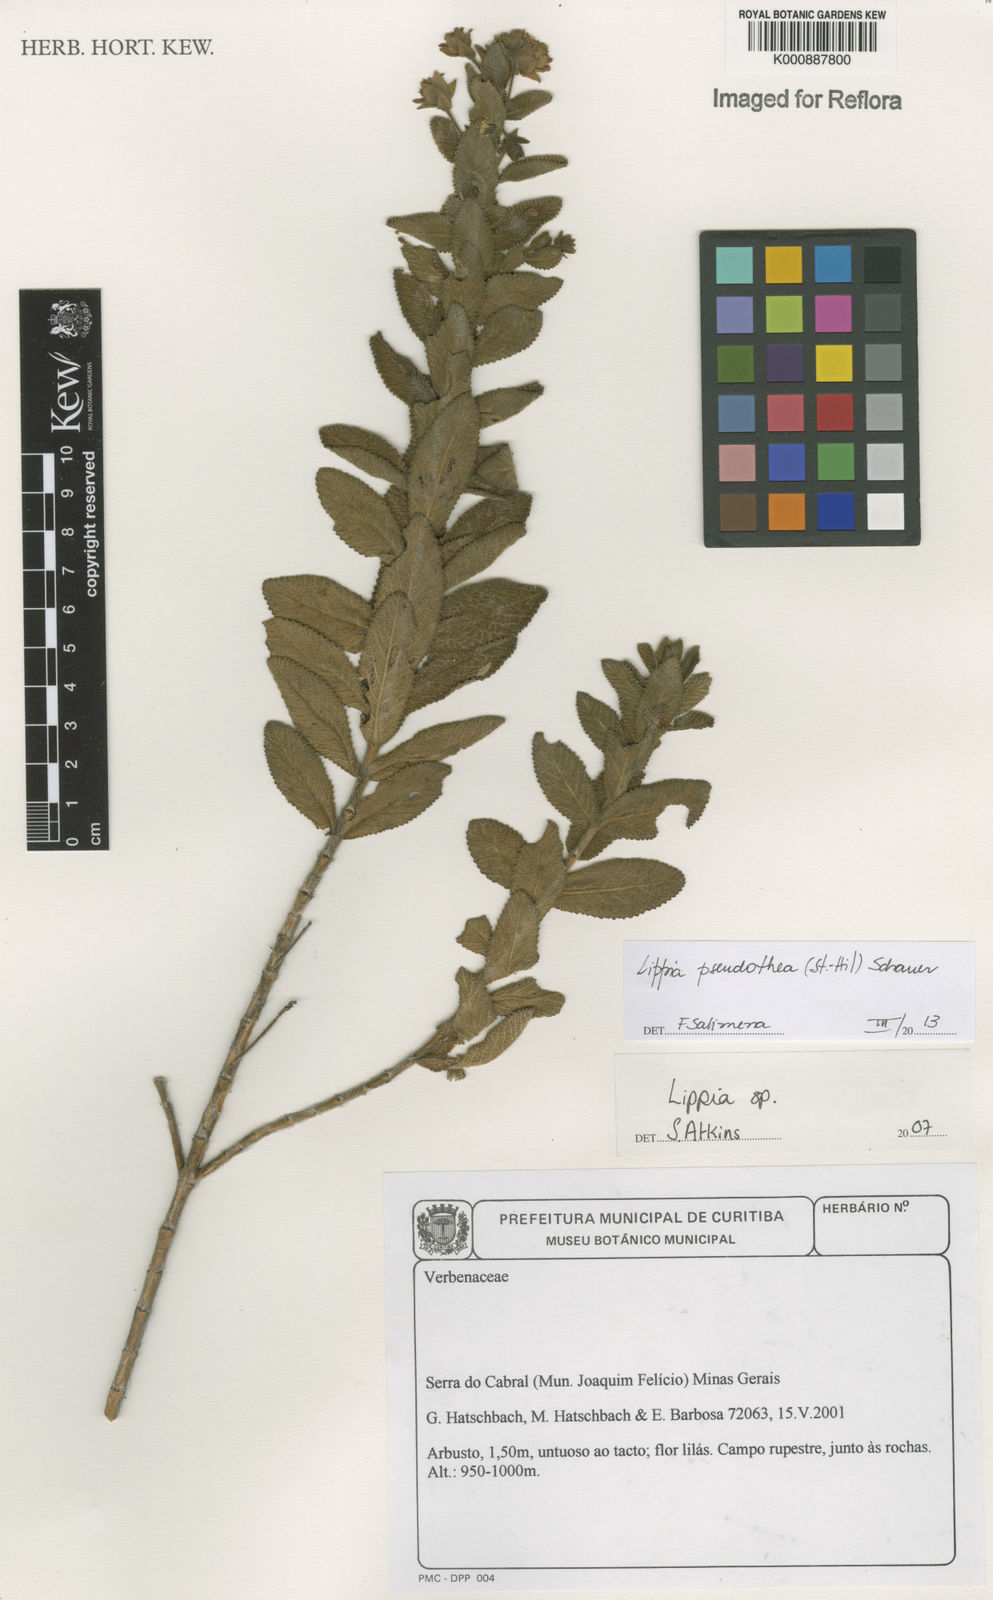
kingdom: Plantae
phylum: Tracheophyta
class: Magnoliopsida
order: Lamiales
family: Verbenaceae
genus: Lippia
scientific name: Lippia
